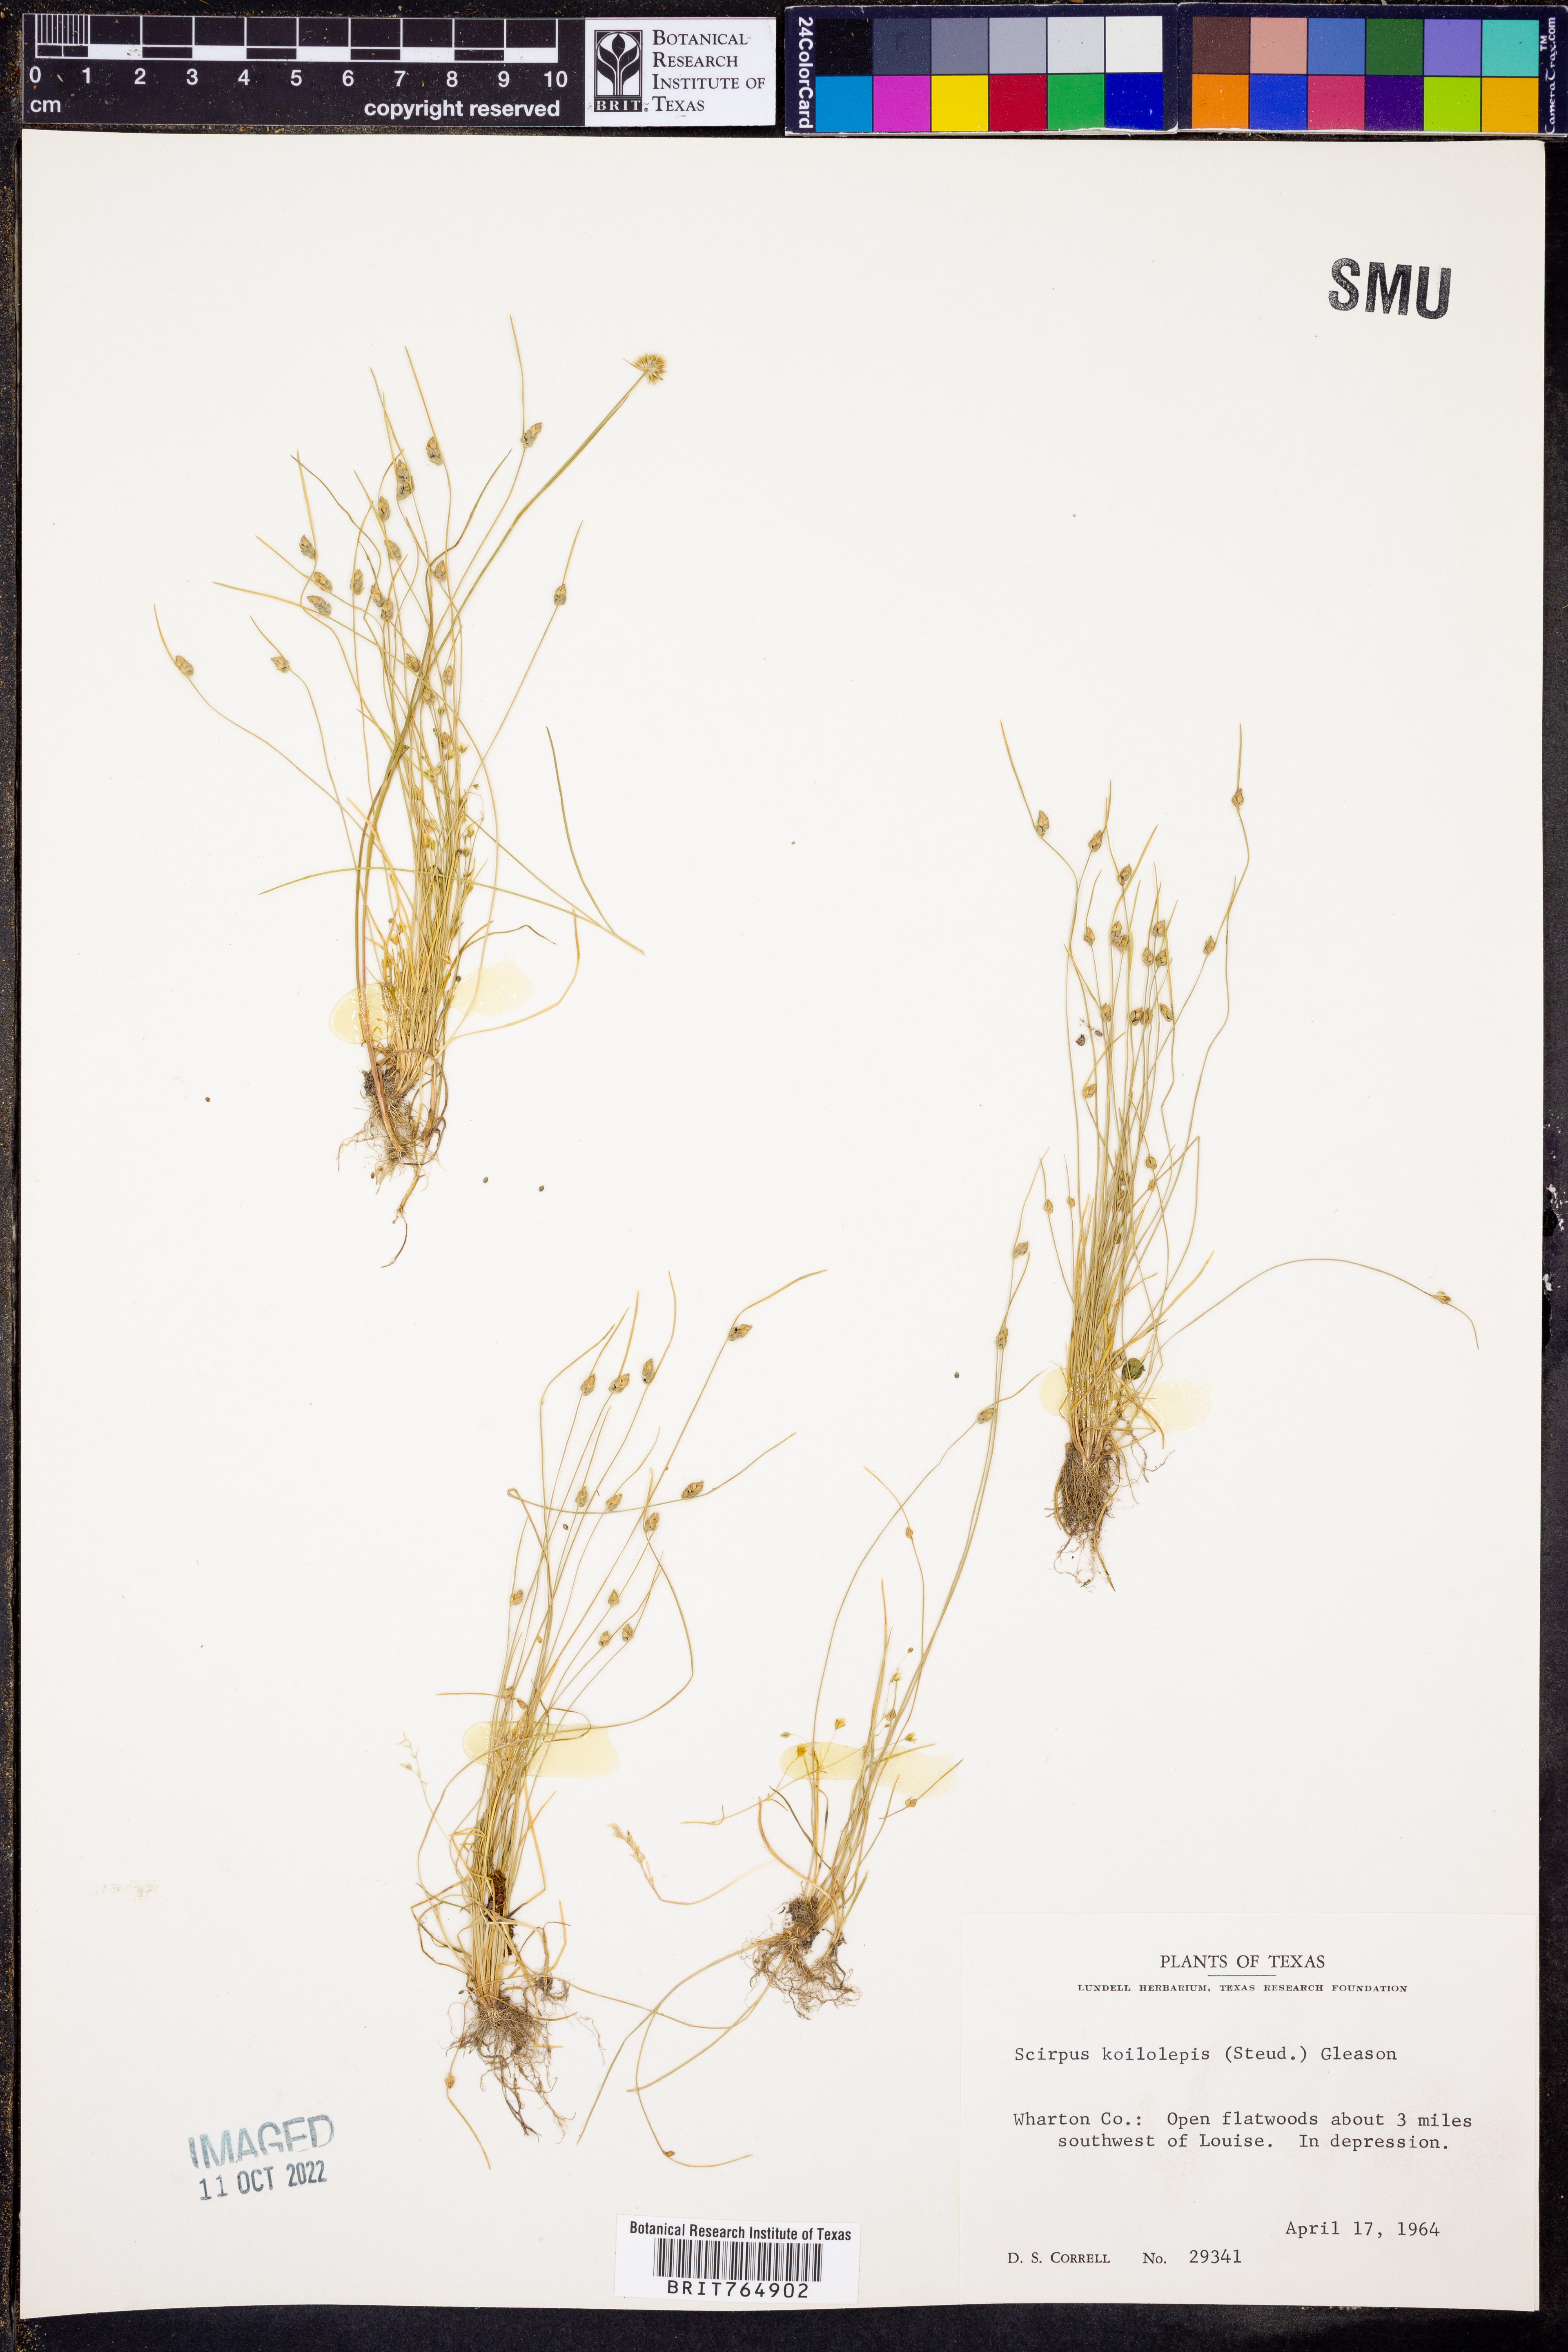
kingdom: Plantae
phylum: Tracheophyta
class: Liliopsida
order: Poales
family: Cyperaceae
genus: Isolepis
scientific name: Isolepis carinata
